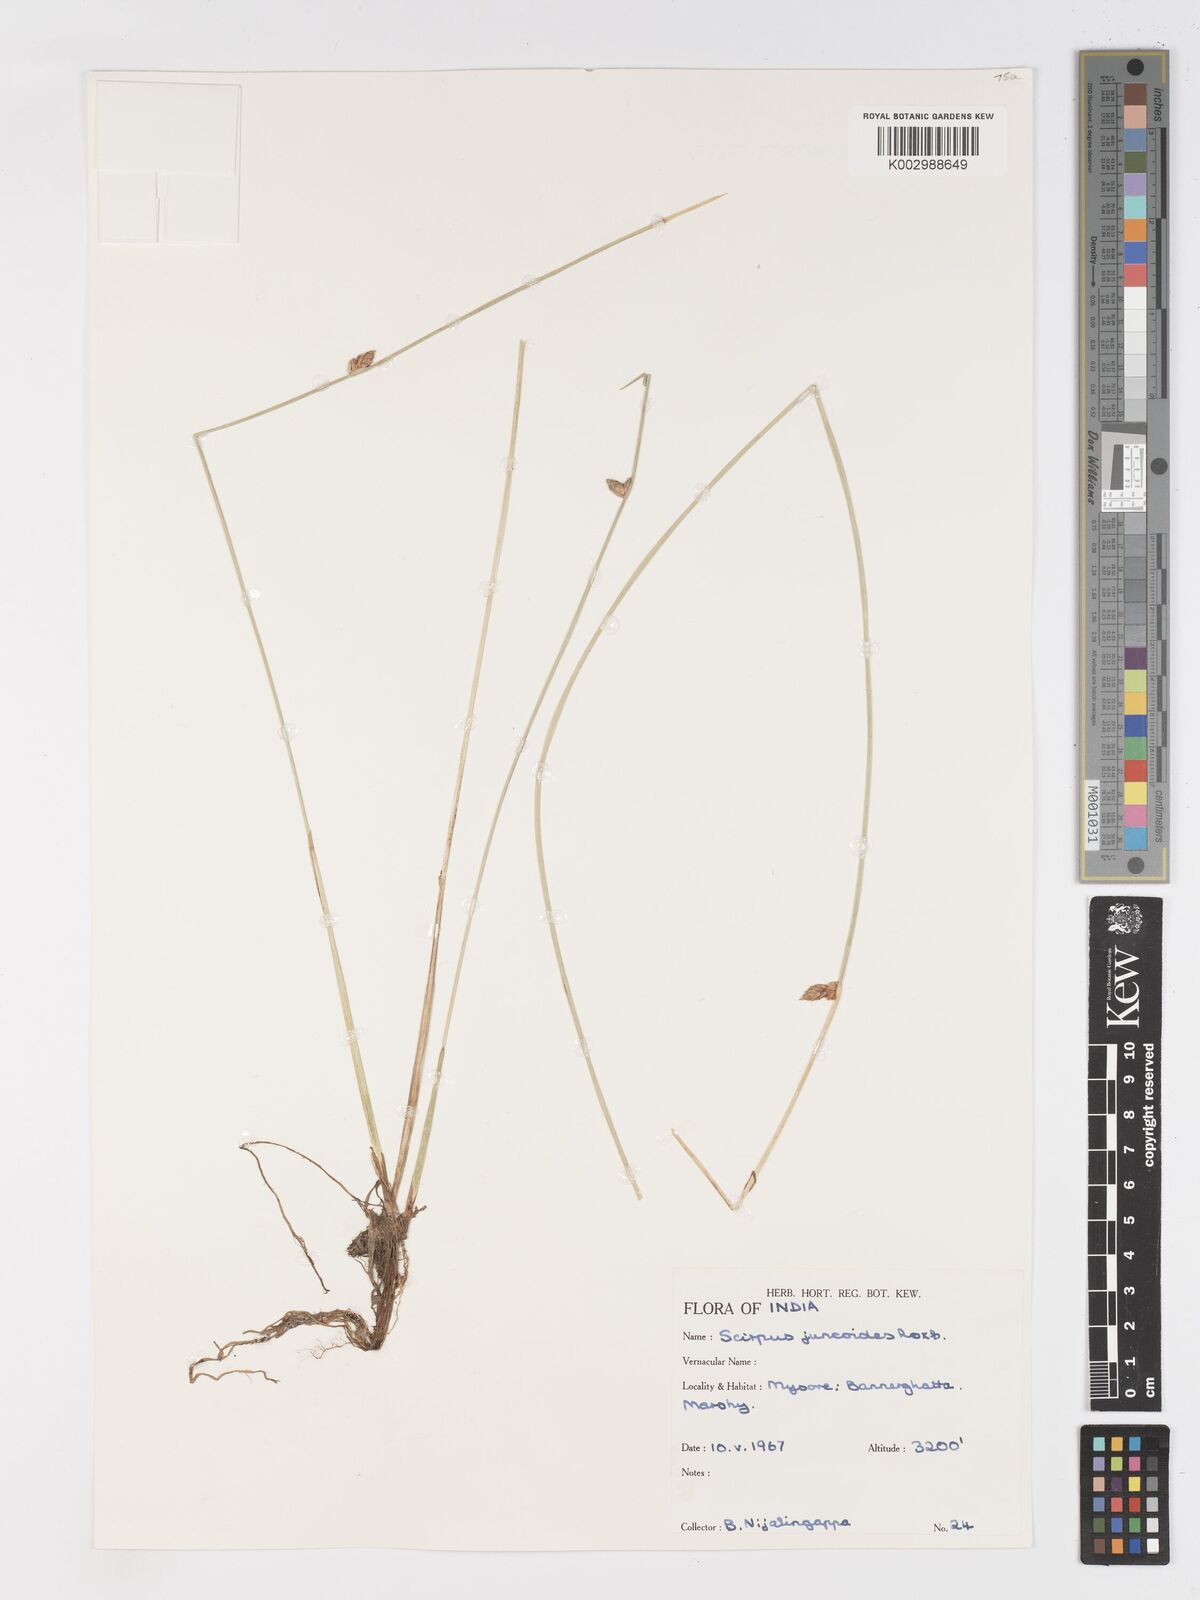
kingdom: Plantae
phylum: Tracheophyta
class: Liliopsida
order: Poales
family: Cyperaceae
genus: Schoenoplectiella
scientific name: Schoenoplectiella juncoides
